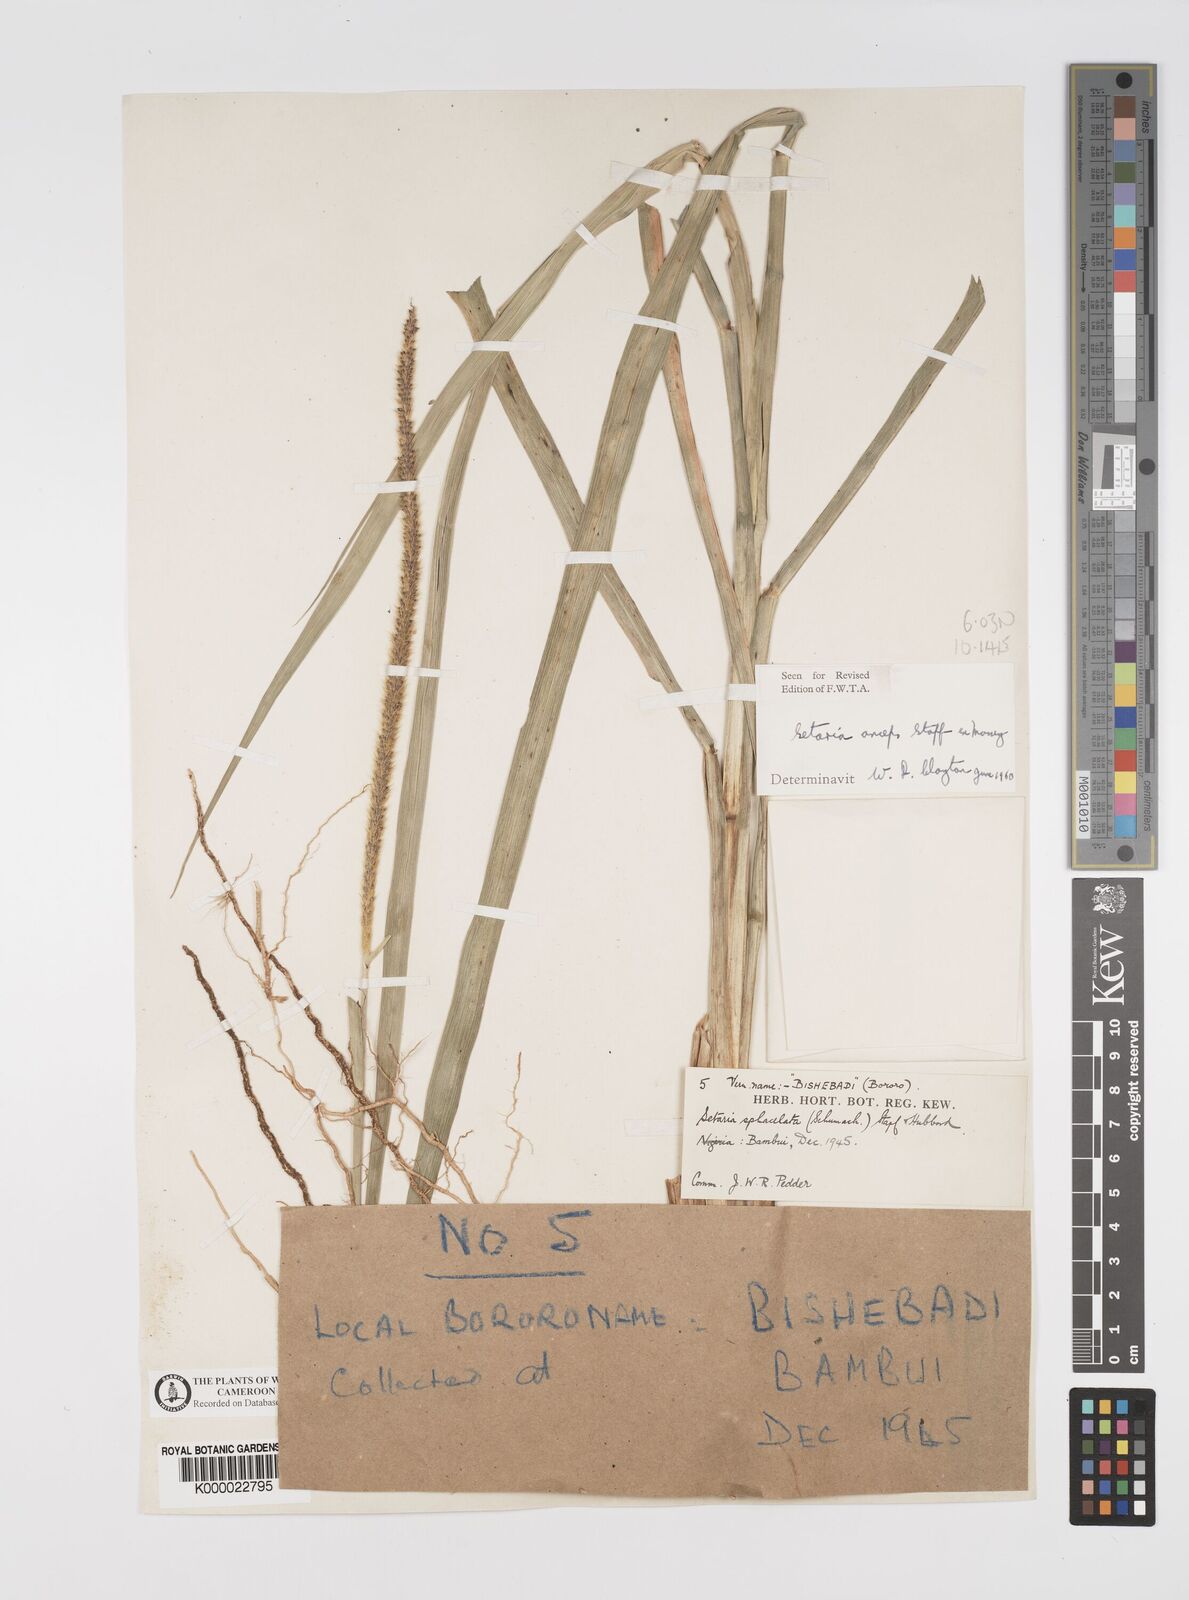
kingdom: Plantae
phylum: Tracheophyta
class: Liliopsida
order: Poales
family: Poaceae
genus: Setaria
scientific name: Setaria sphacelata
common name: African bristlegrass
